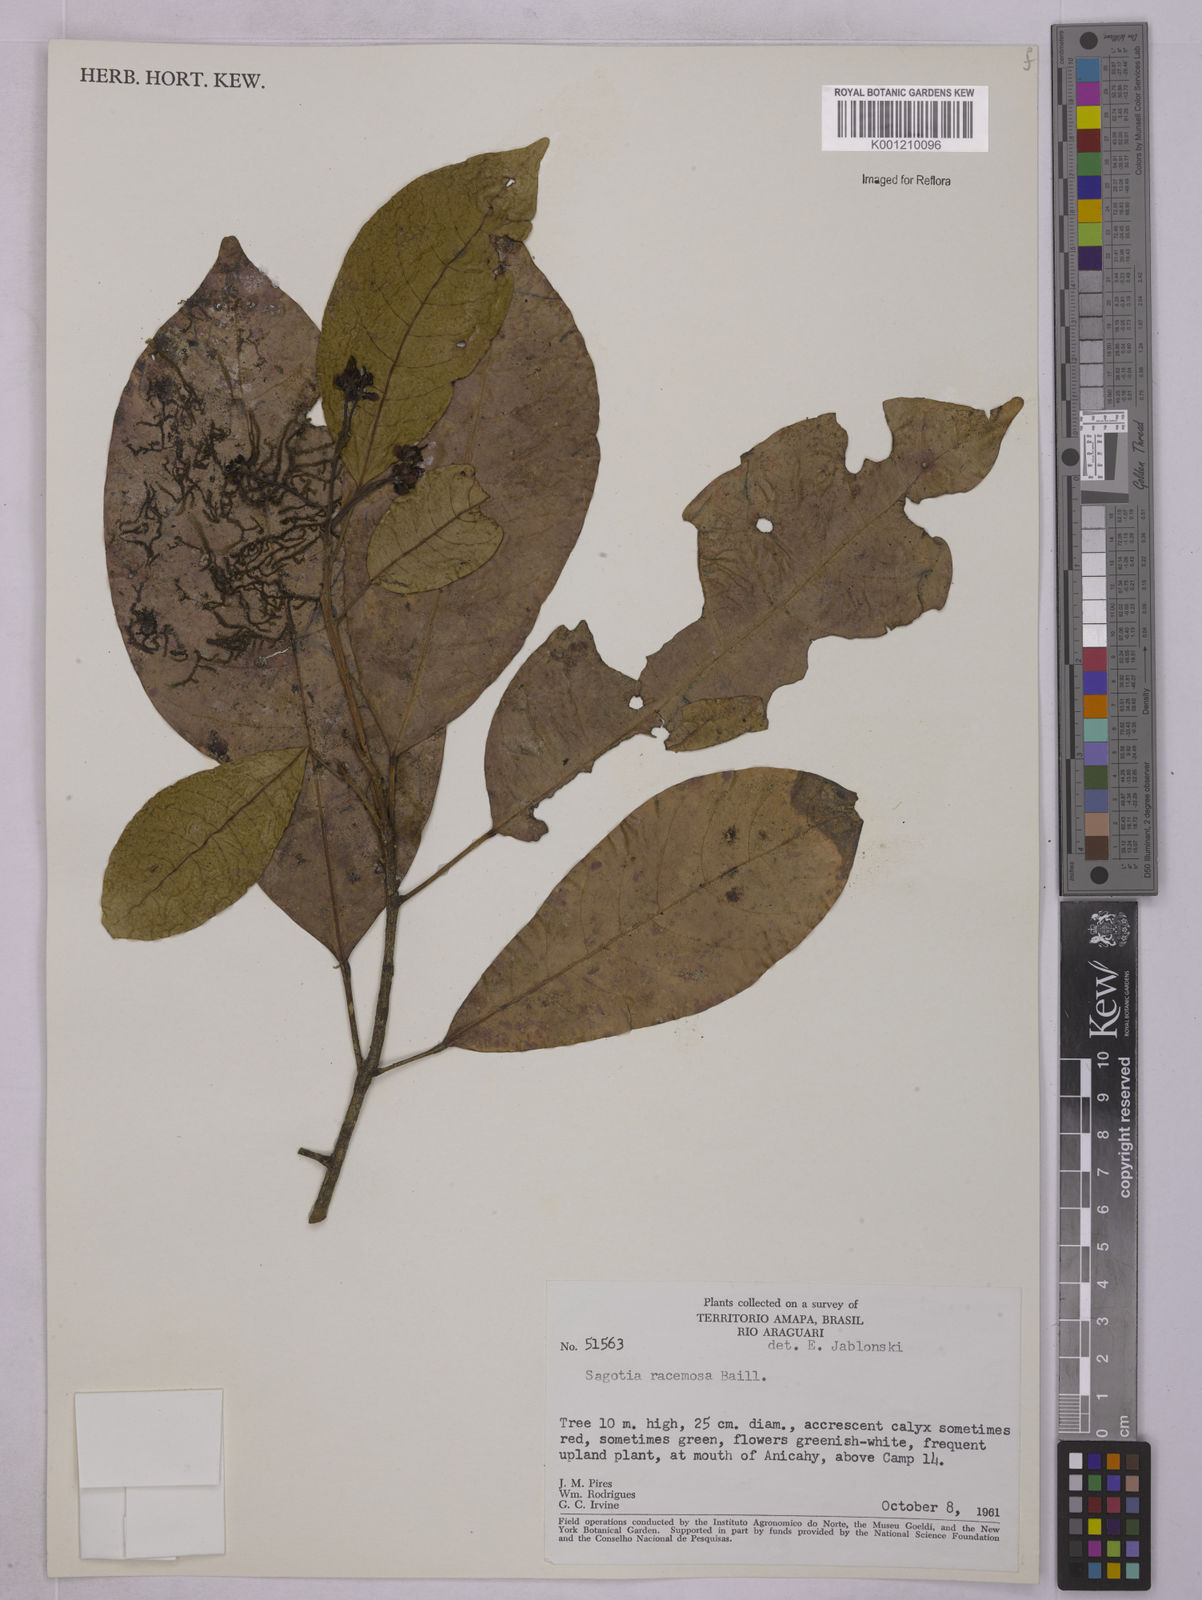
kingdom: Plantae
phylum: Tracheophyta
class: Magnoliopsida
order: Malpighiales
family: Euphorbiaceae
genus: Sagotia
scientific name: Sagotia racemosa
